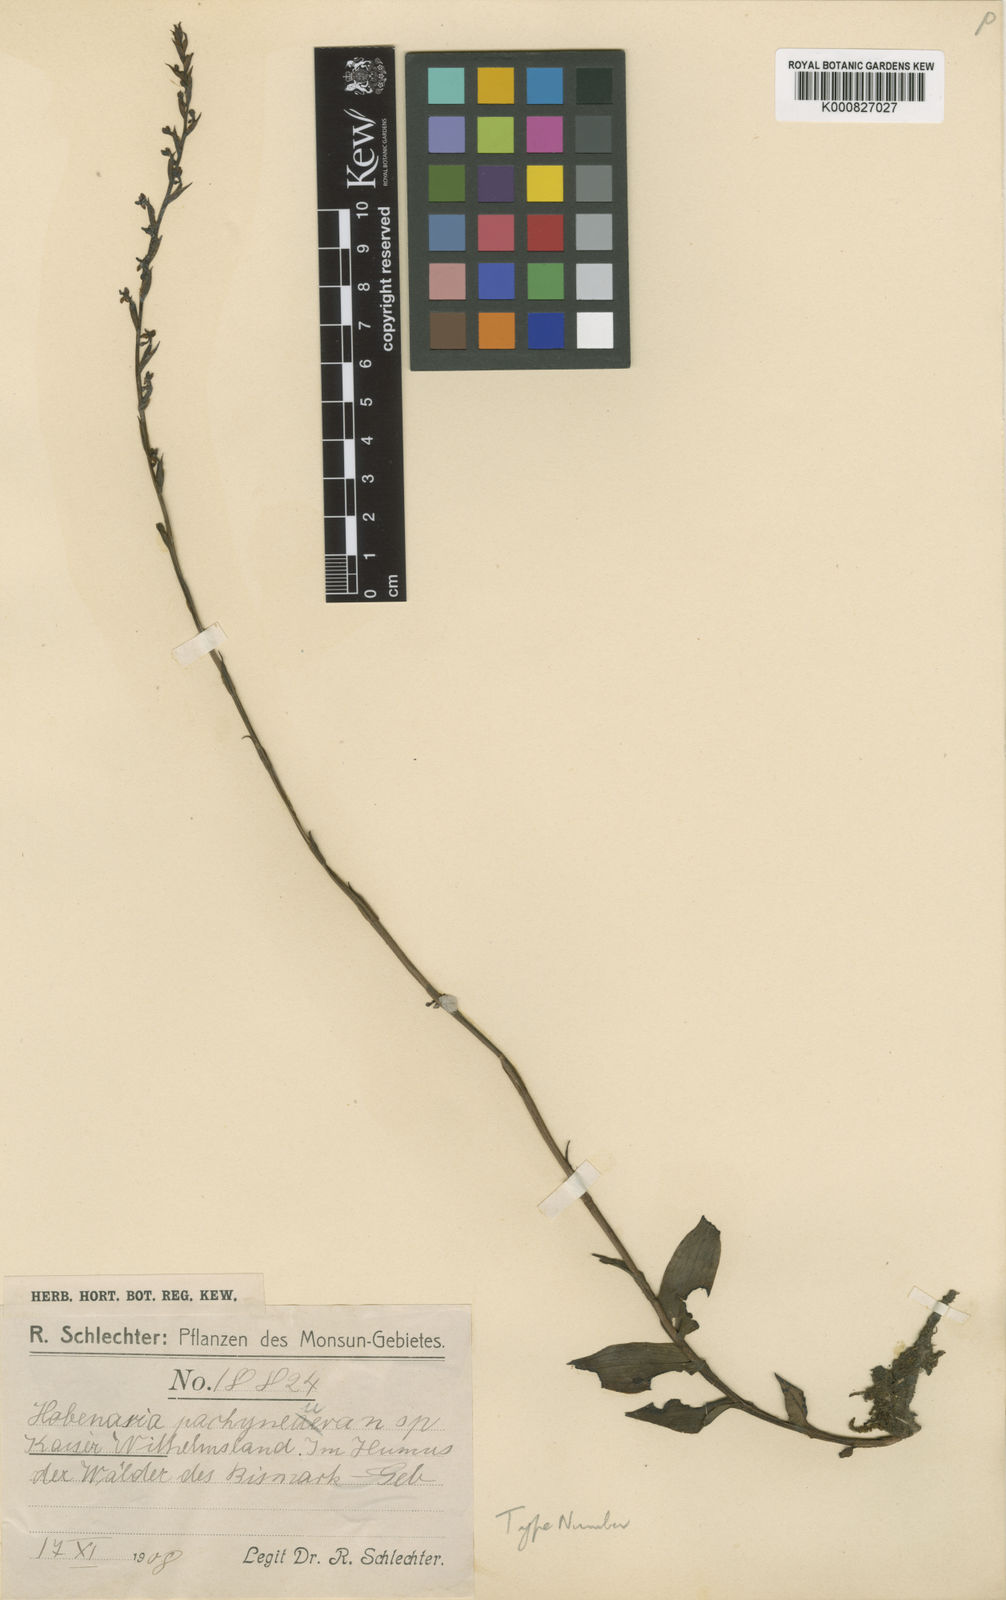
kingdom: Plantae
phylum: Tracheophyta
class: Liliopsida
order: Asparagales
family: Orchidaceae
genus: Peristylus
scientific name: Peristylus pachyneurus
